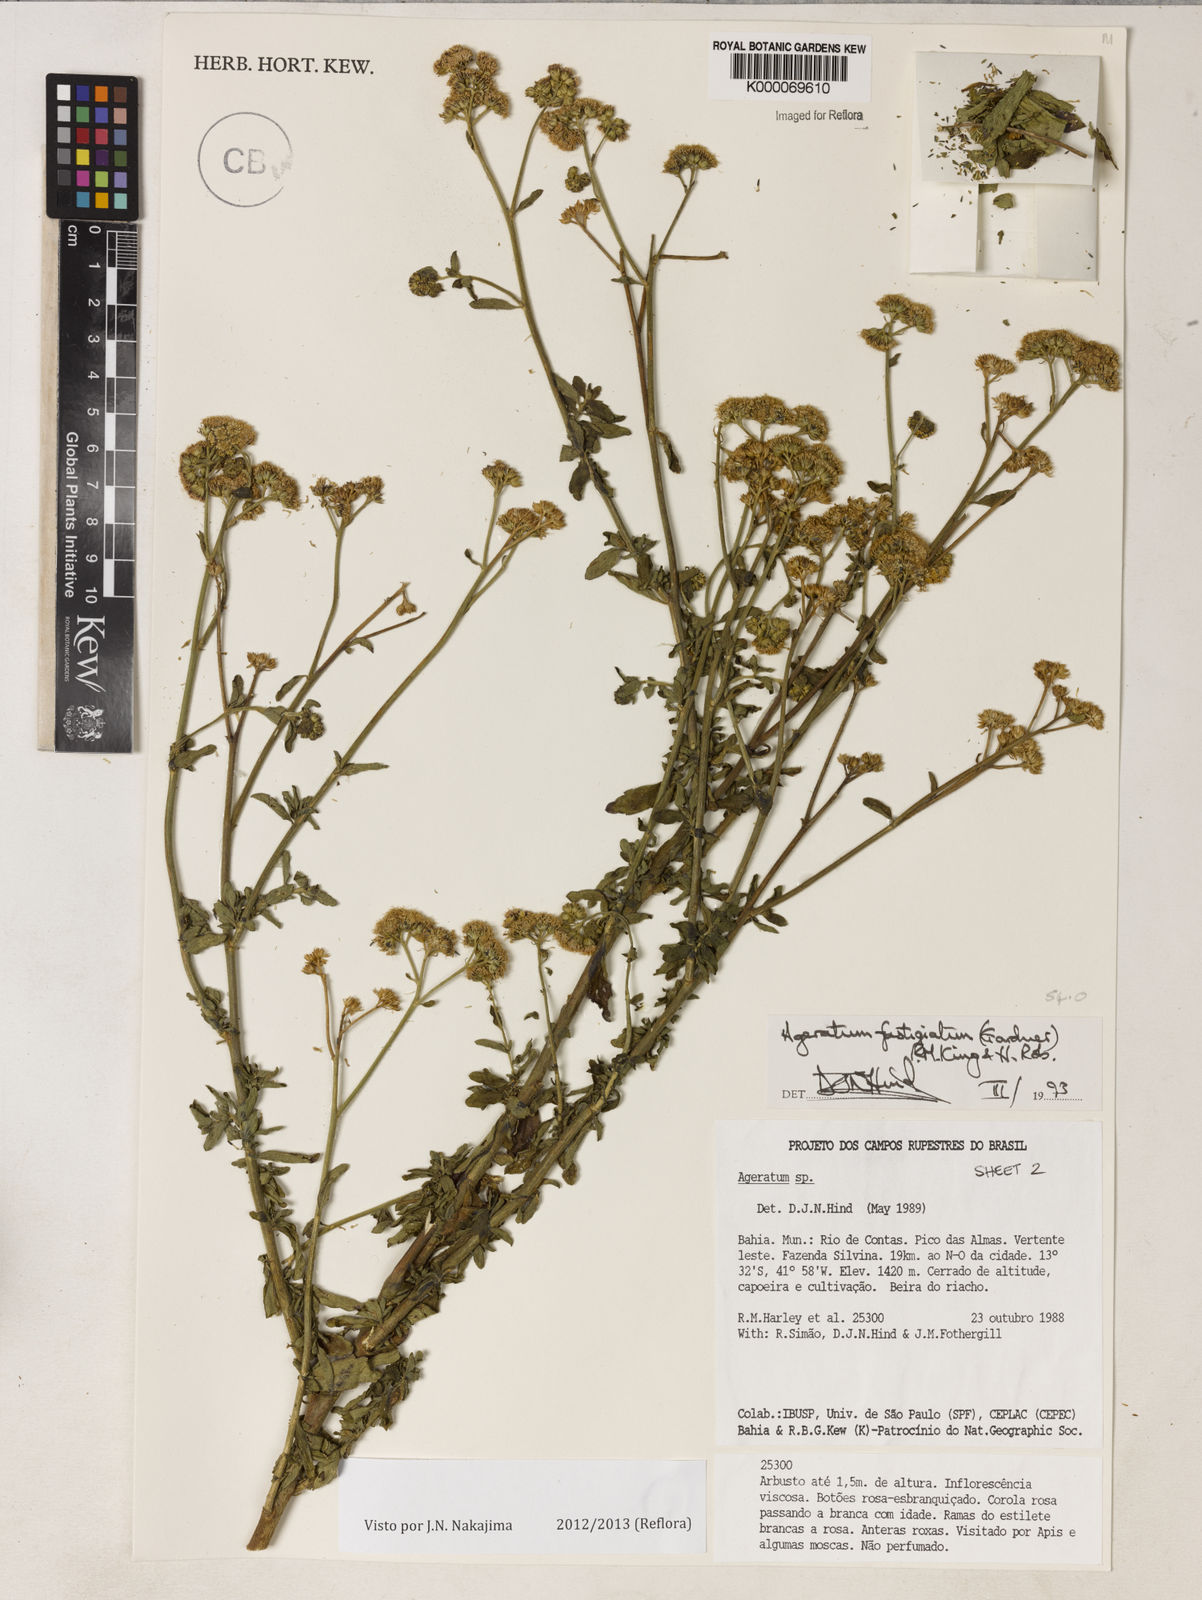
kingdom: Plantae
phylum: Tracheophyta
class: Magnoliopsida
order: Asterales
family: Asteraceae
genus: Ageratum
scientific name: Ageratum fastigiatum
